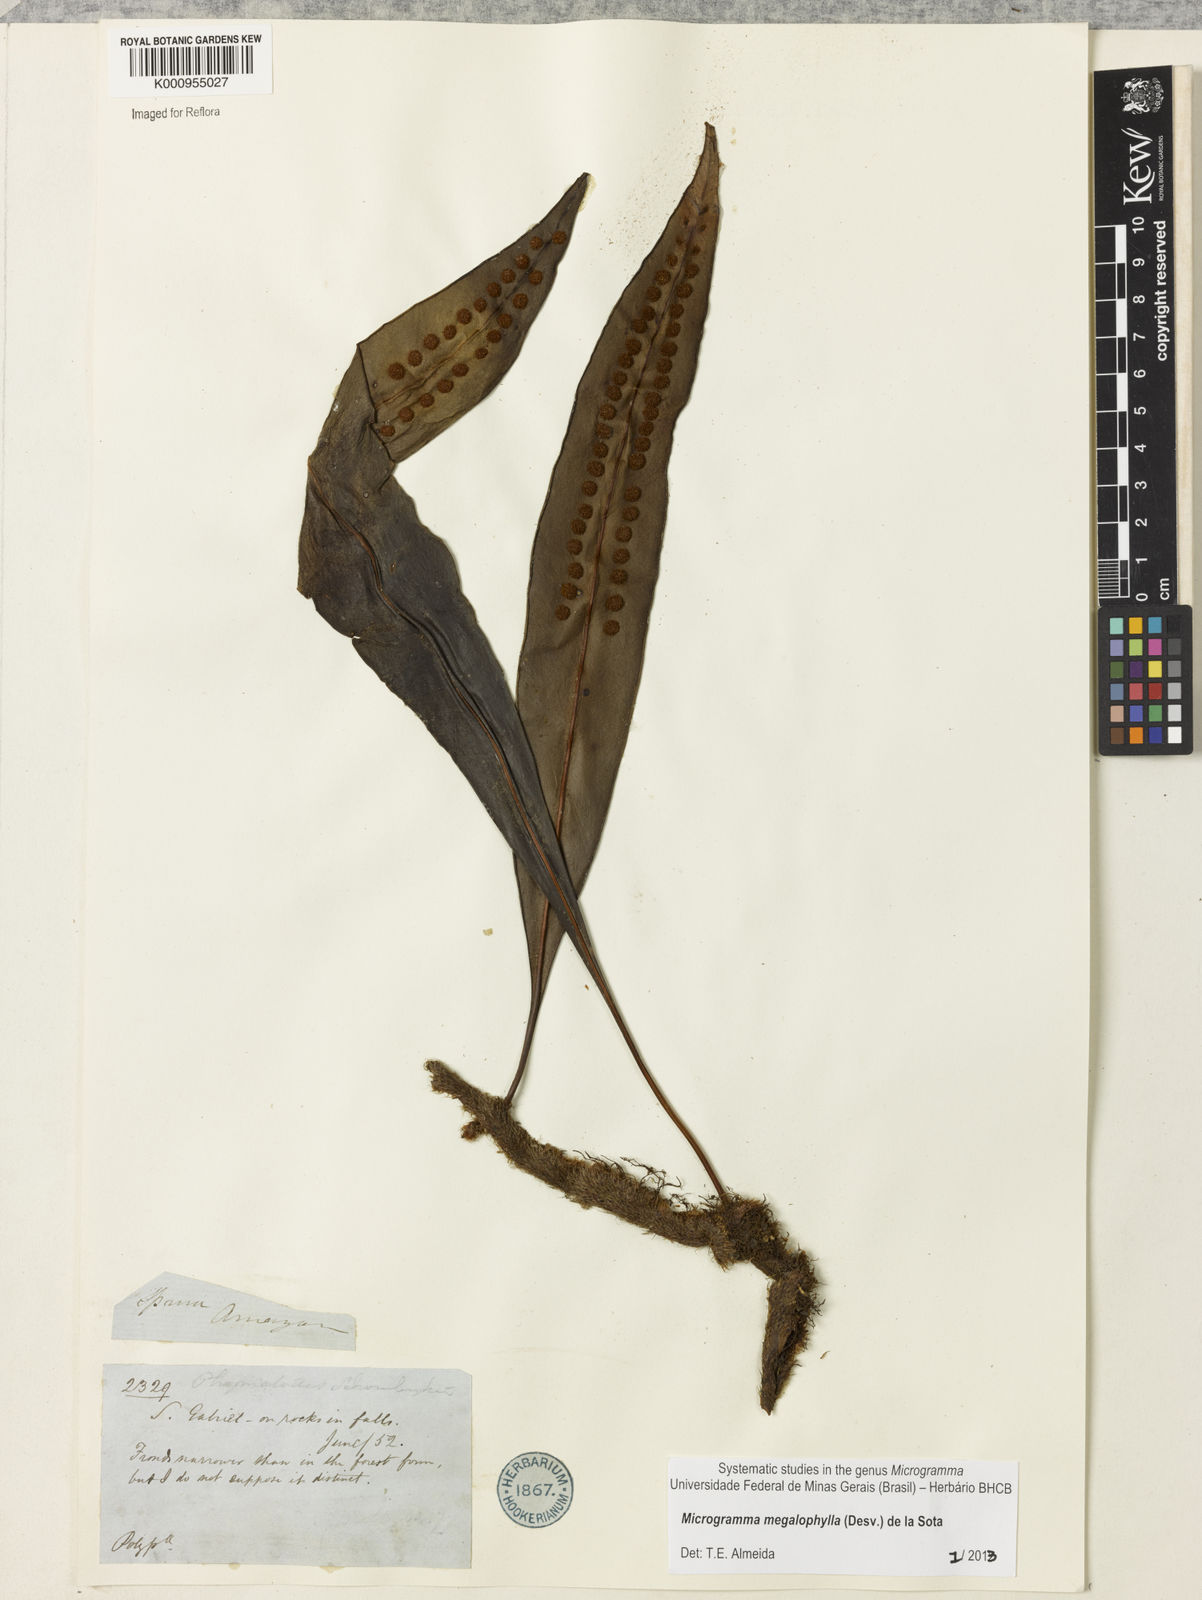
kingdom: Plantae
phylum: Tracheophyta
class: Polypodiopsida
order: Polypodiales
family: Polypodiaceae
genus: Microgramma
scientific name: Microgramma megalophylla
